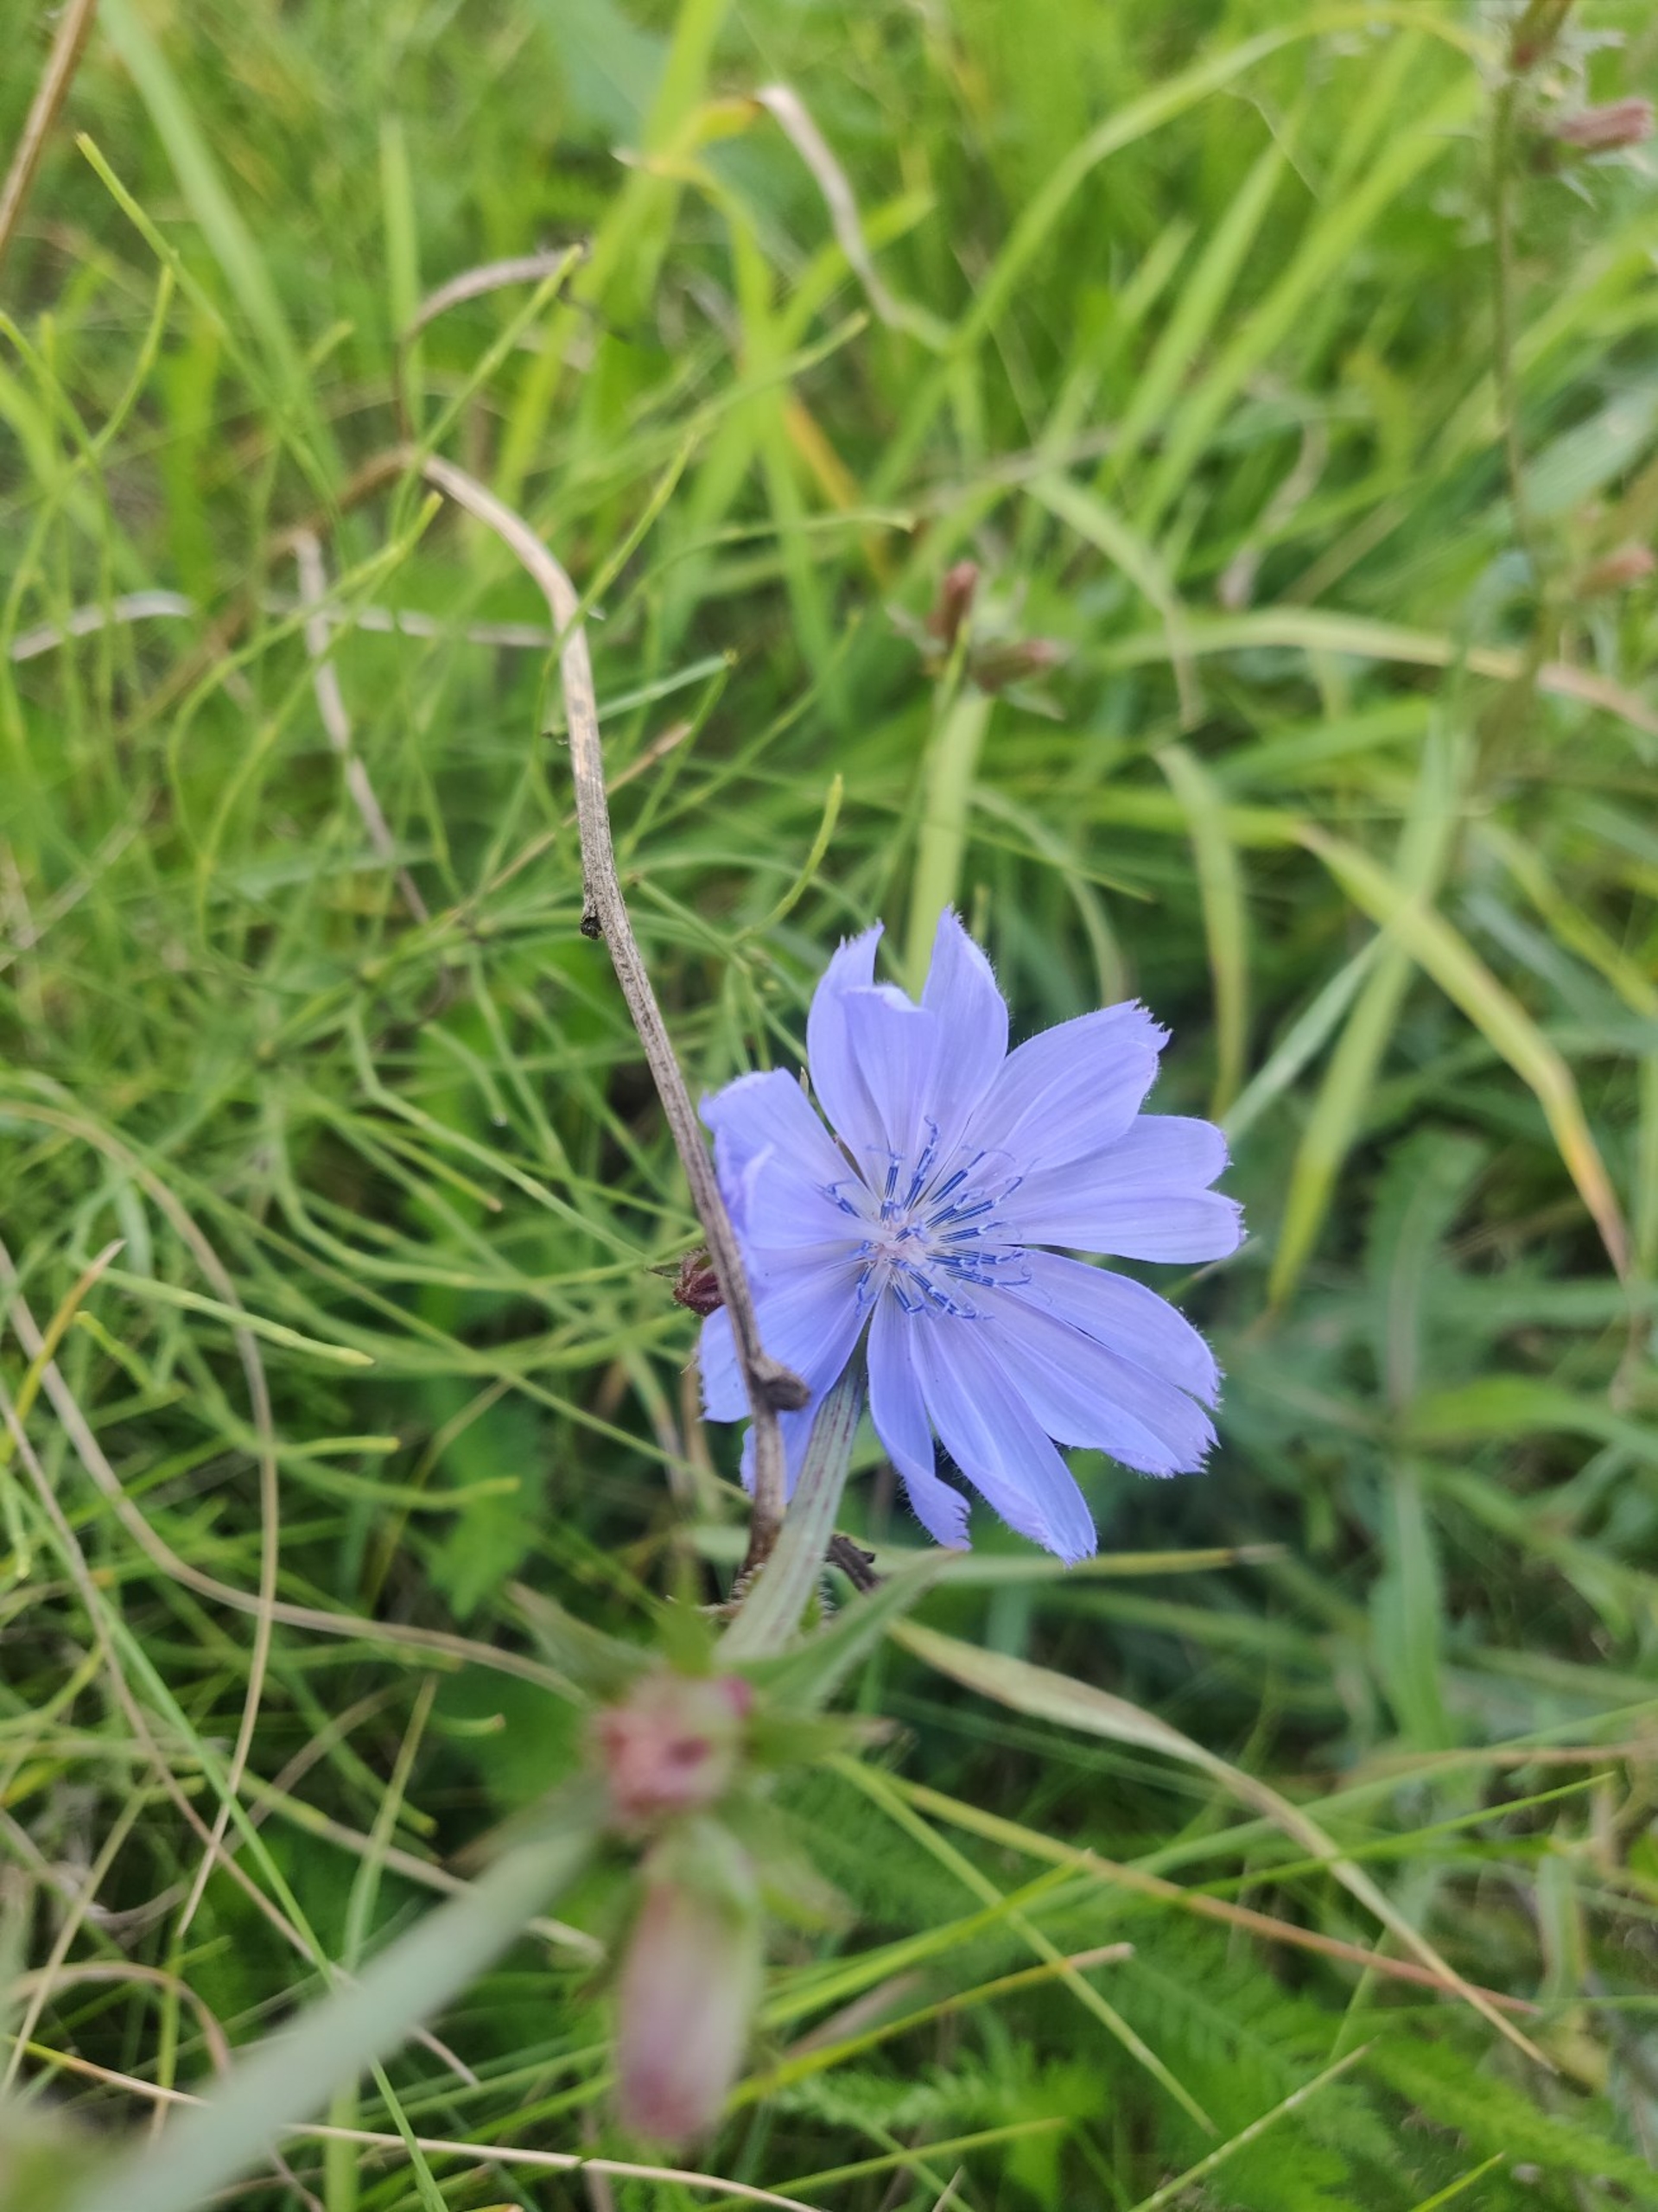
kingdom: Plantae
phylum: Tracheophyta
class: Magnoliopsida
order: Asterales
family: Asteraceae
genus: Cichorium
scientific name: Cichorium intybus
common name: Cikorie
